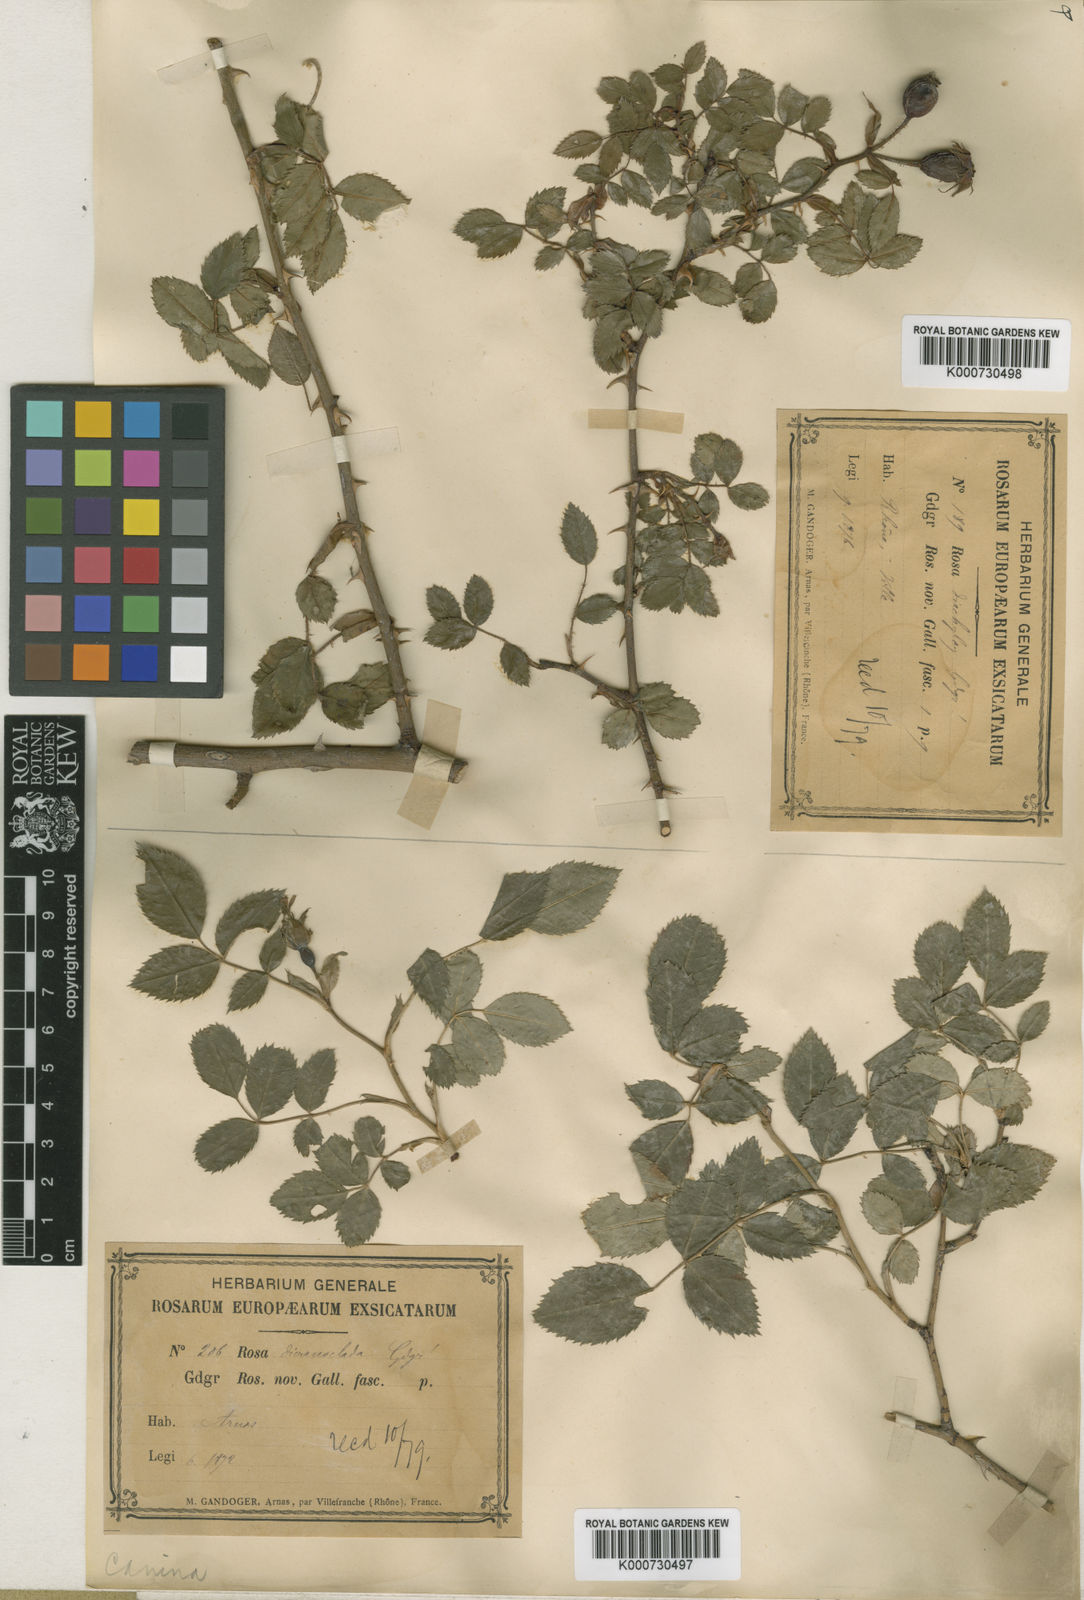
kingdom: Plantae
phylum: Tracheophyta
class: Magnoliopsida
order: Rosales
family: Rosaceae
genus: Rosa
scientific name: Rosa canina
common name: Dog rose
